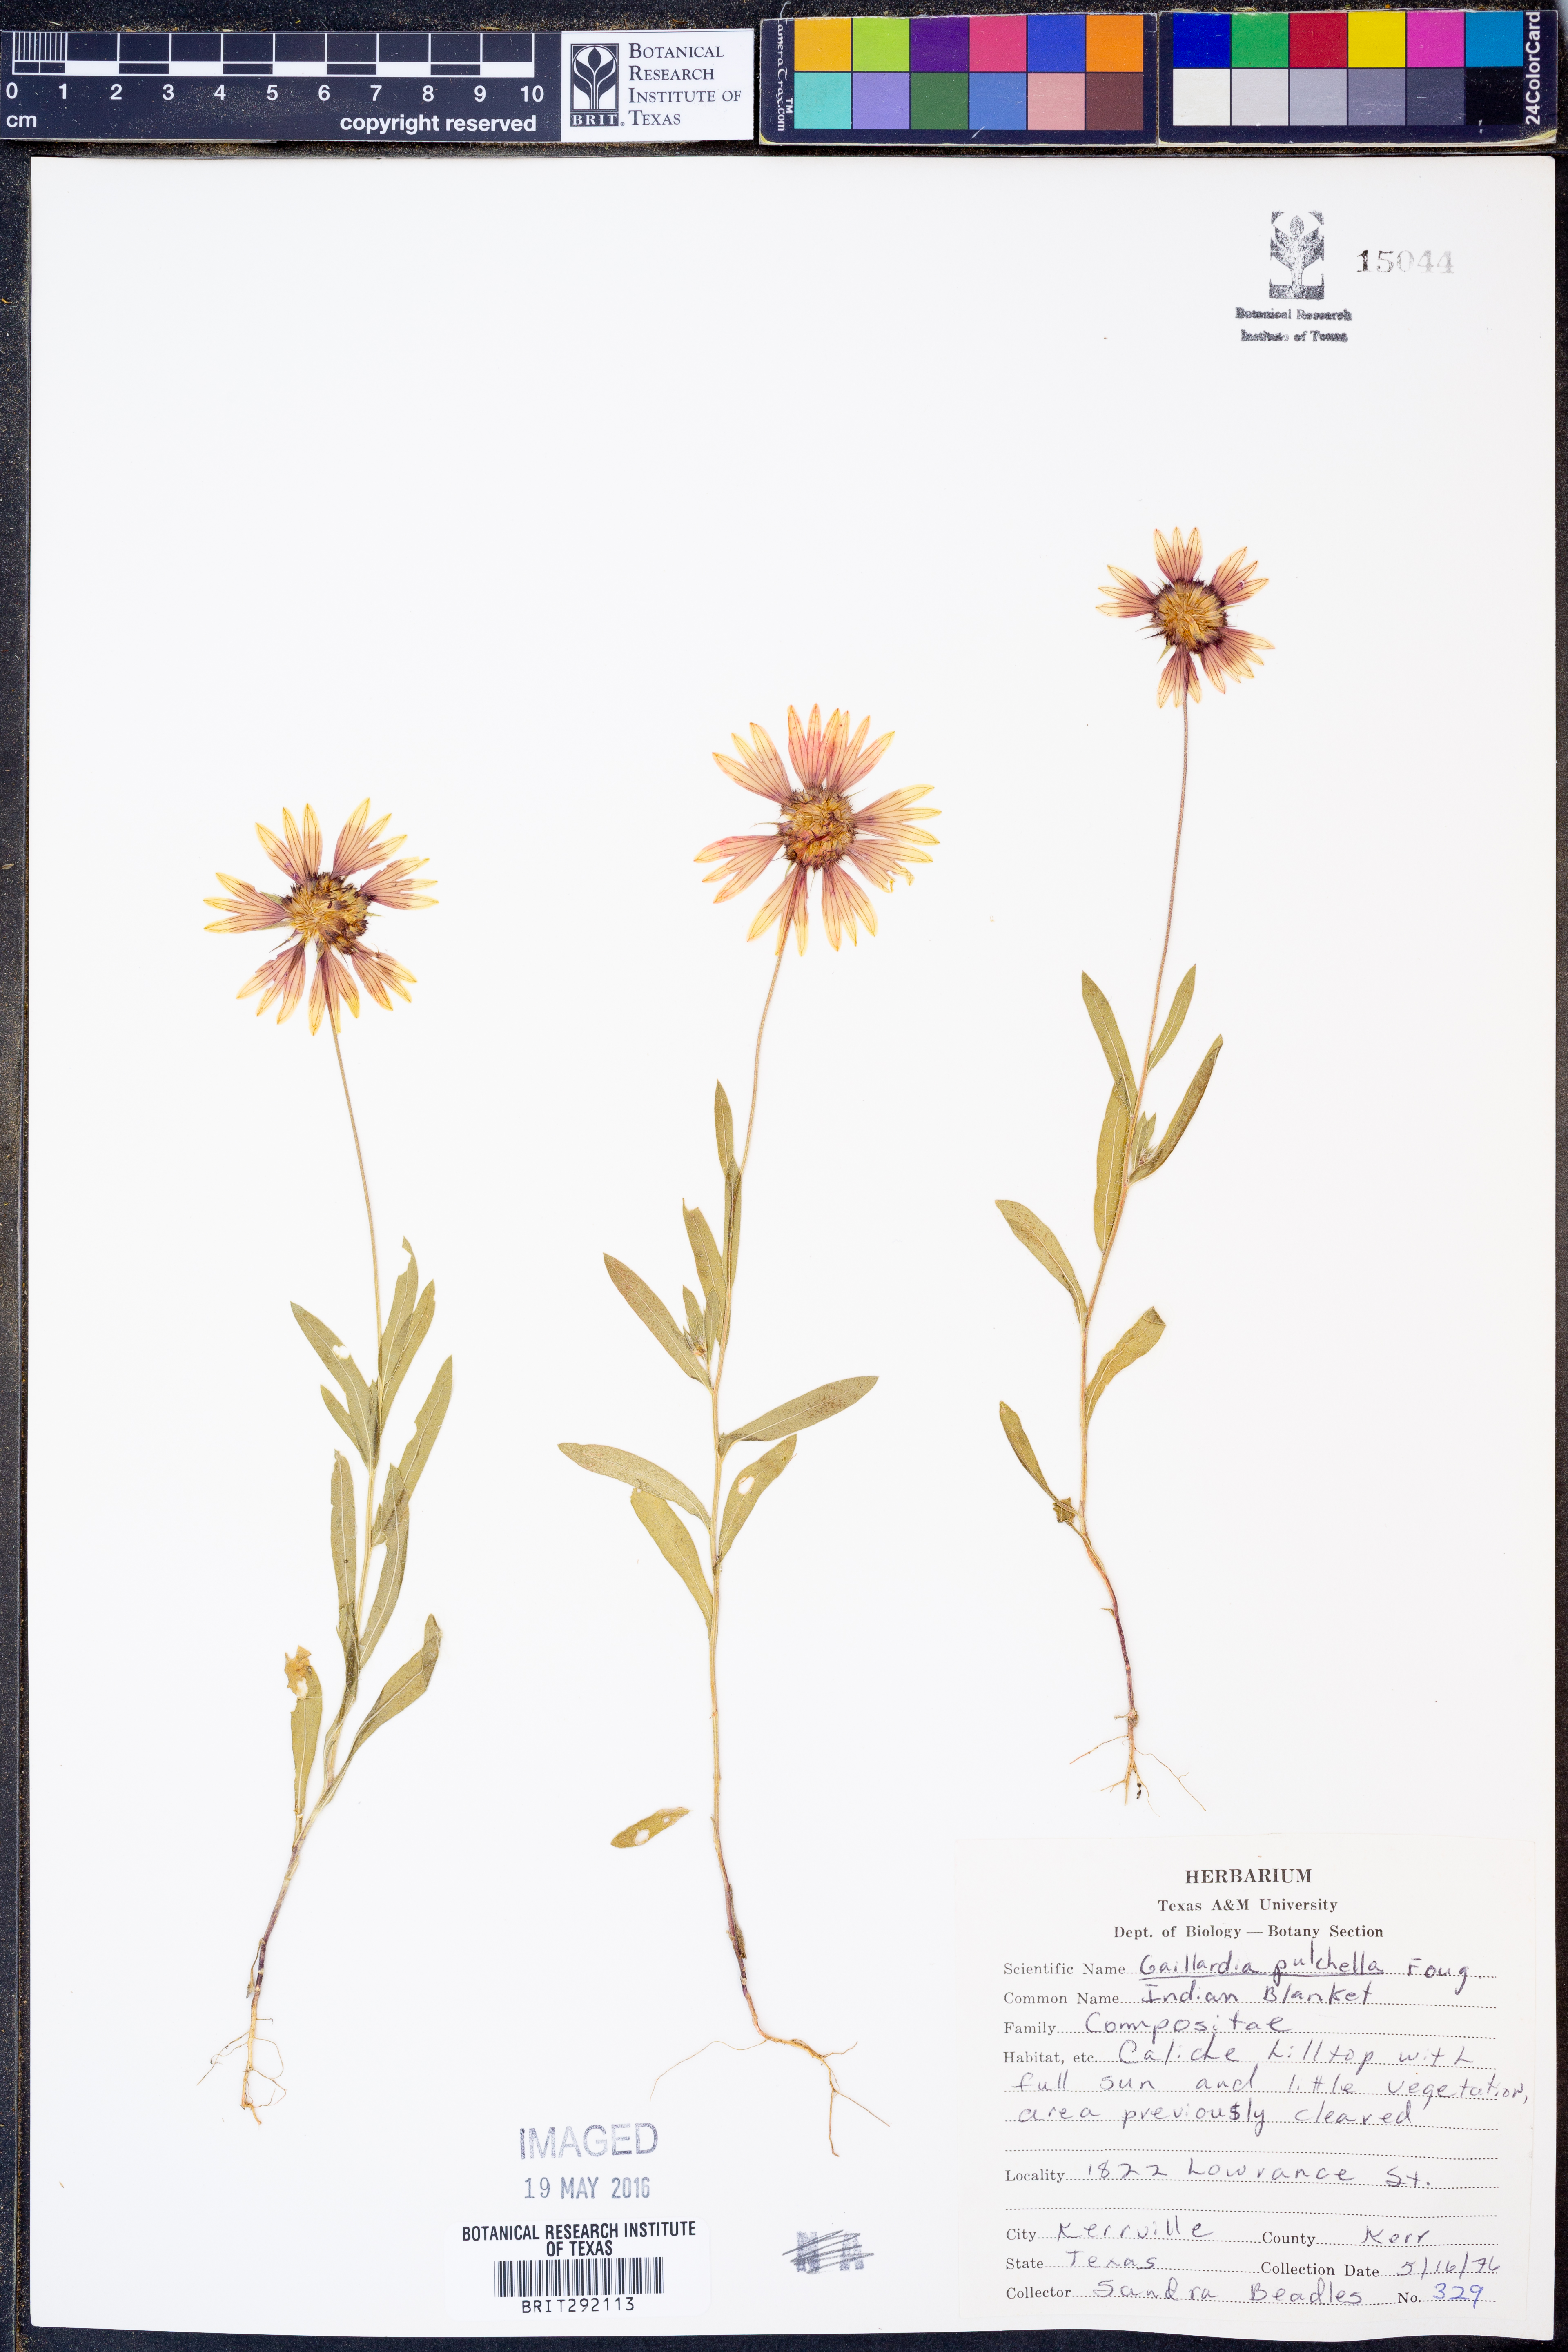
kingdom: Plantae
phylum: Tracheophyta
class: Magnoliopsida
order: Asterales
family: Asteraceae
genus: Gaillardia
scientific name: Gaillardia pulchella
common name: Firewheel
